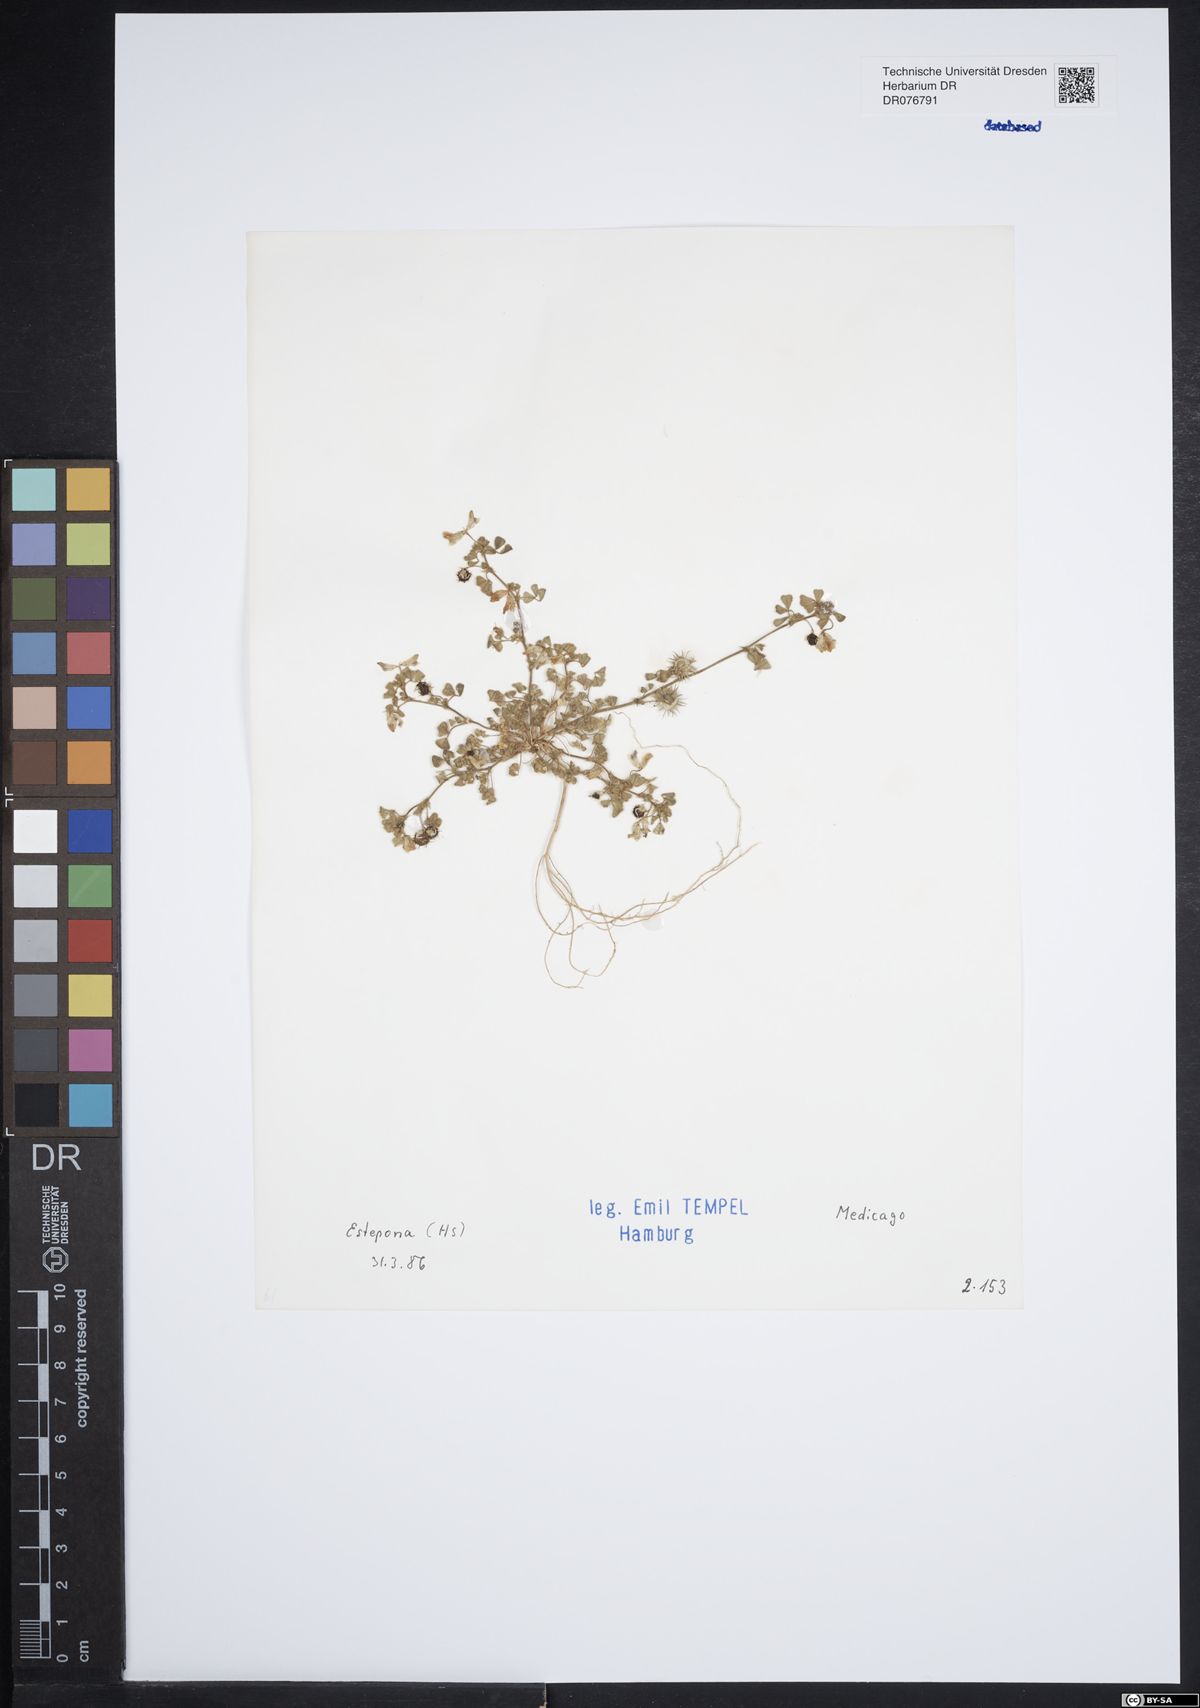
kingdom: Plantae
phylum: Tracheophyta
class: Magnoliopsida
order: Fabales
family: Fabaceae
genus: Medicago
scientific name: Medicago
